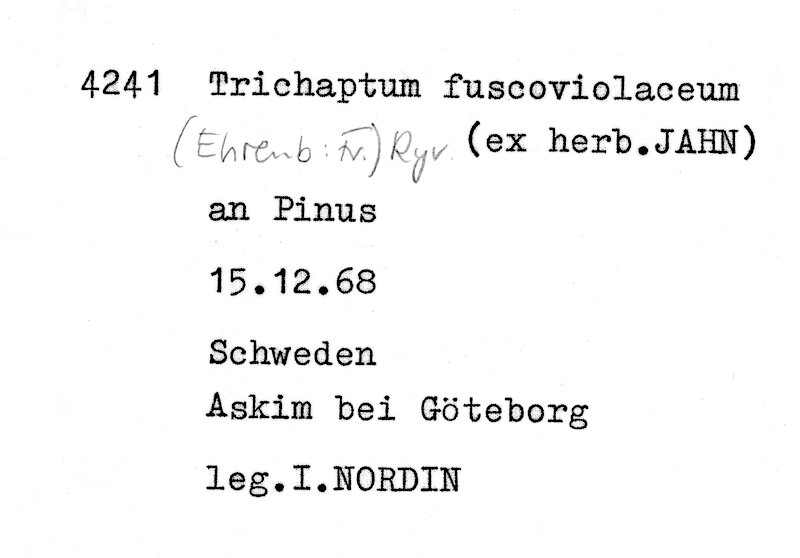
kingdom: Plantae
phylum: Tracheophyta
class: Pinopsida
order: Pinales
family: Pinaceae
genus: Pinus
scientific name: Pinus
